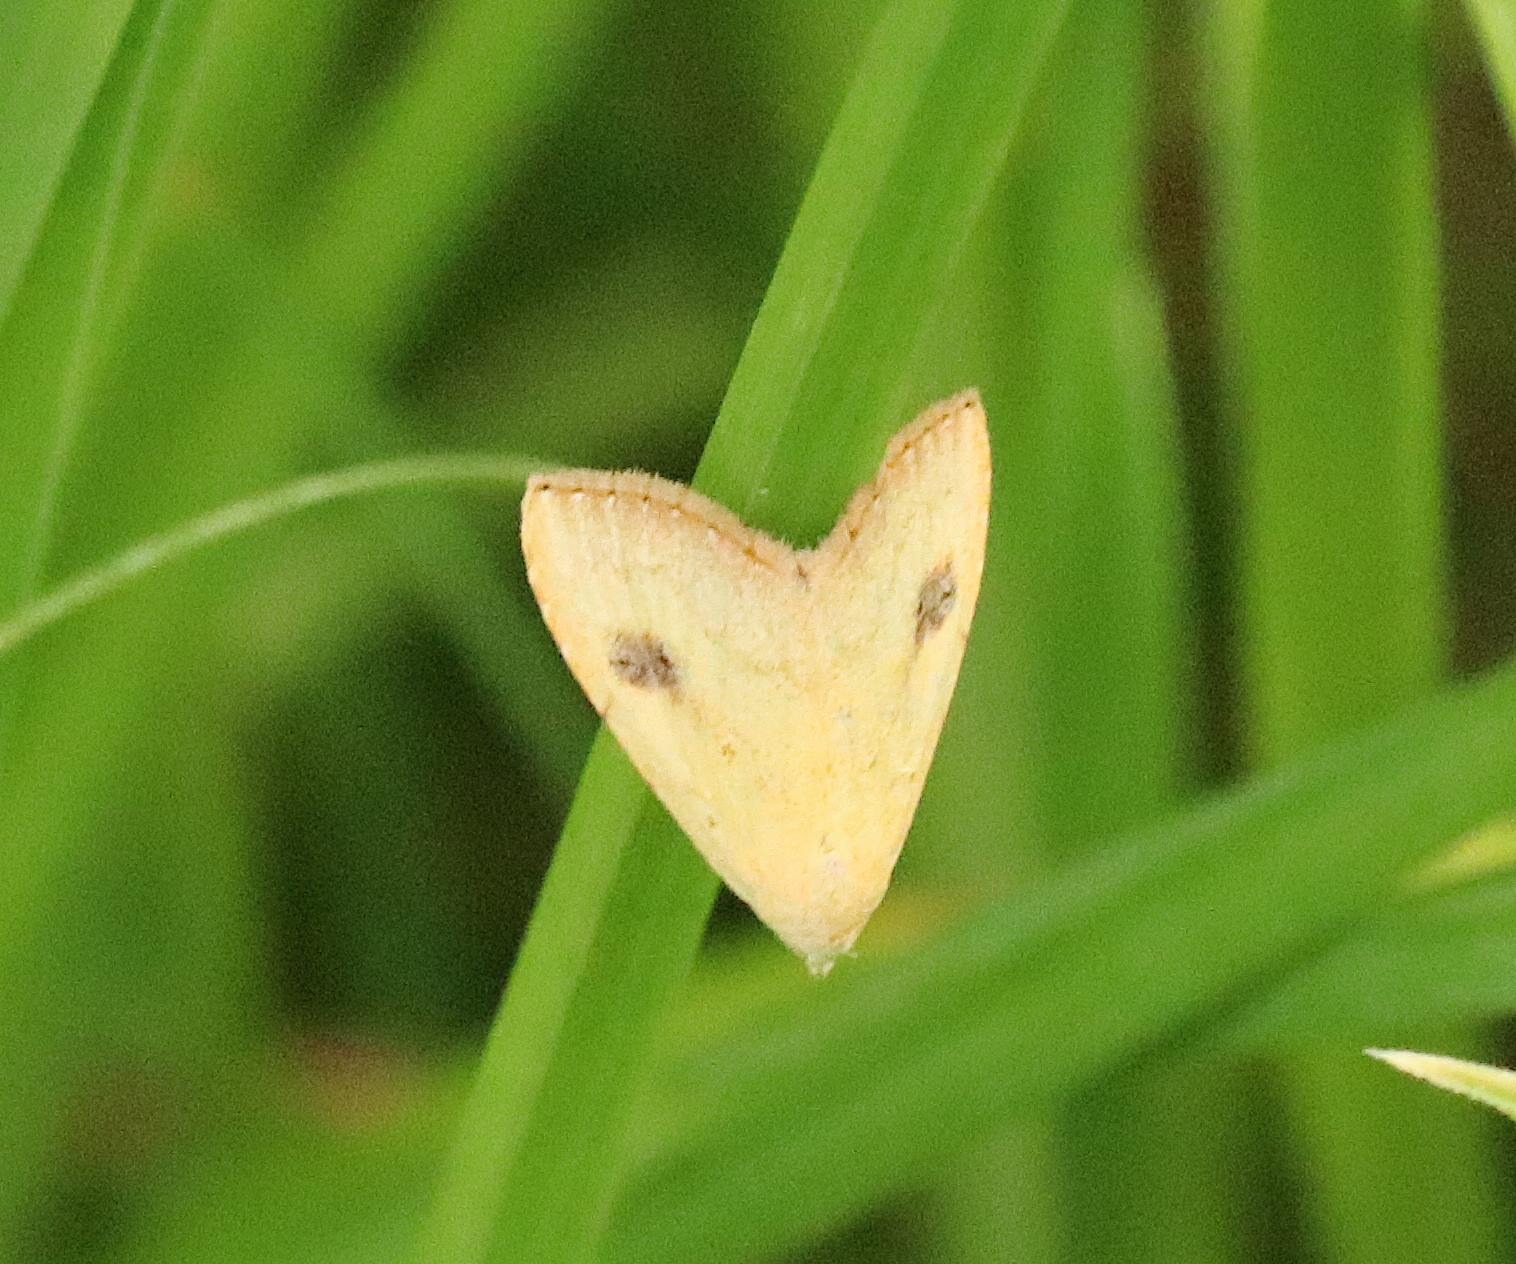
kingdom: Animalia
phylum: Arthropoda
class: Insecta
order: Lepidoptera
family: Erebidae
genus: Rivula
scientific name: Rivula sericealis
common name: Lille å-ugle
